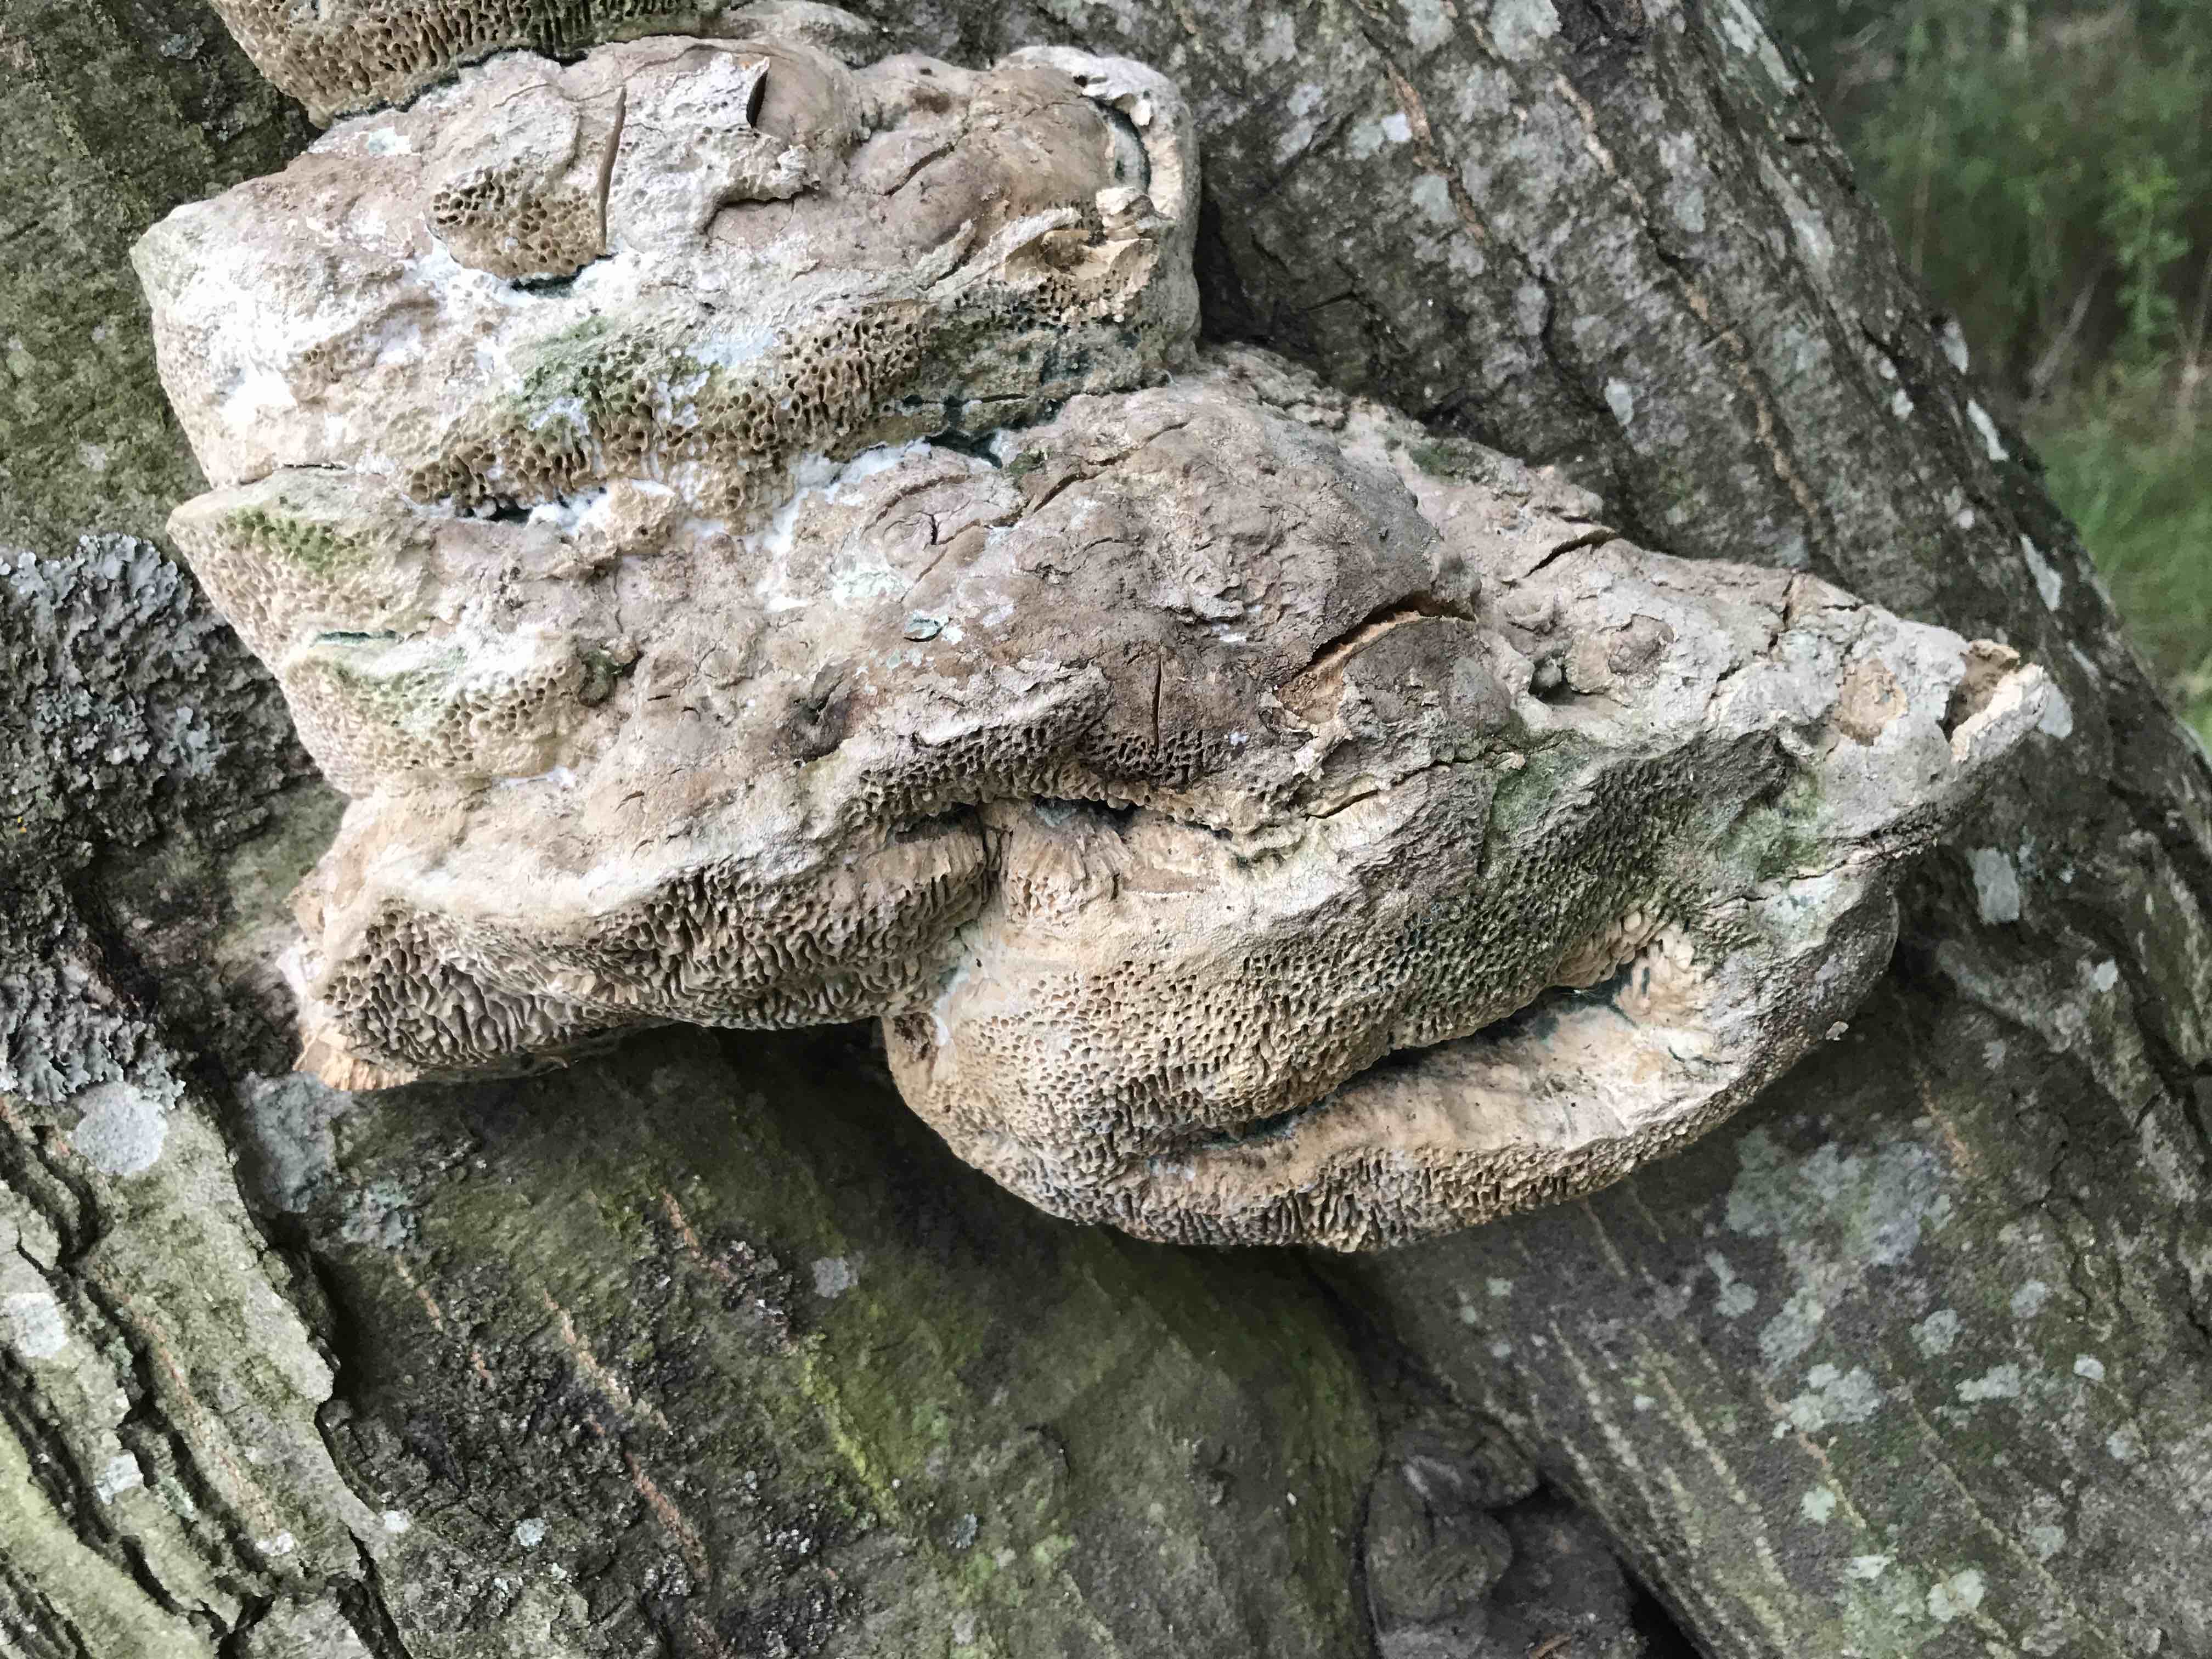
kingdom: Fungi
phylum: Basidiomycota
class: Agaricomycetes
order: Polyporales
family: Fomitopsidaceae
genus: Daedalea
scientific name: Daedalea quercina
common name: ege-labyrintsvamp
